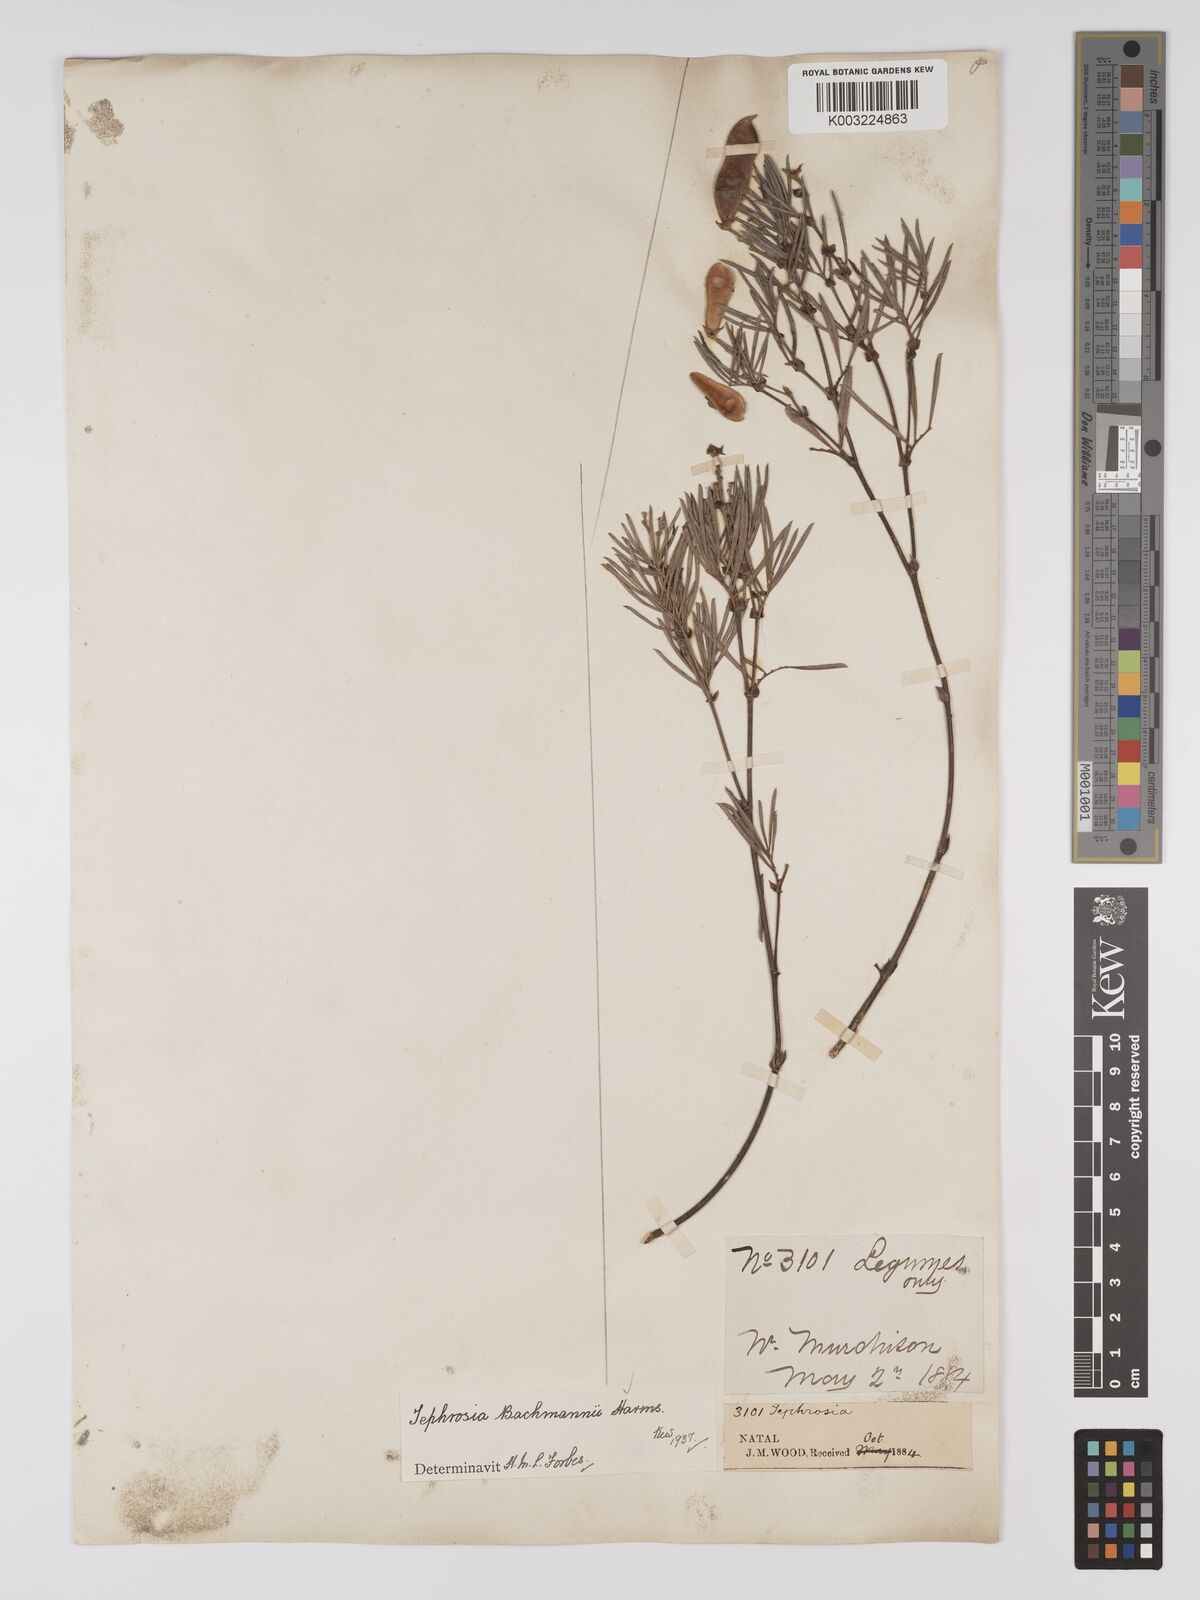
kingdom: Plantae
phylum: Tracheophyta
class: Magnoliopsida
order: Fabales
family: Fabaceae
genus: Tephrosia
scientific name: Tephrosia bachmannii
